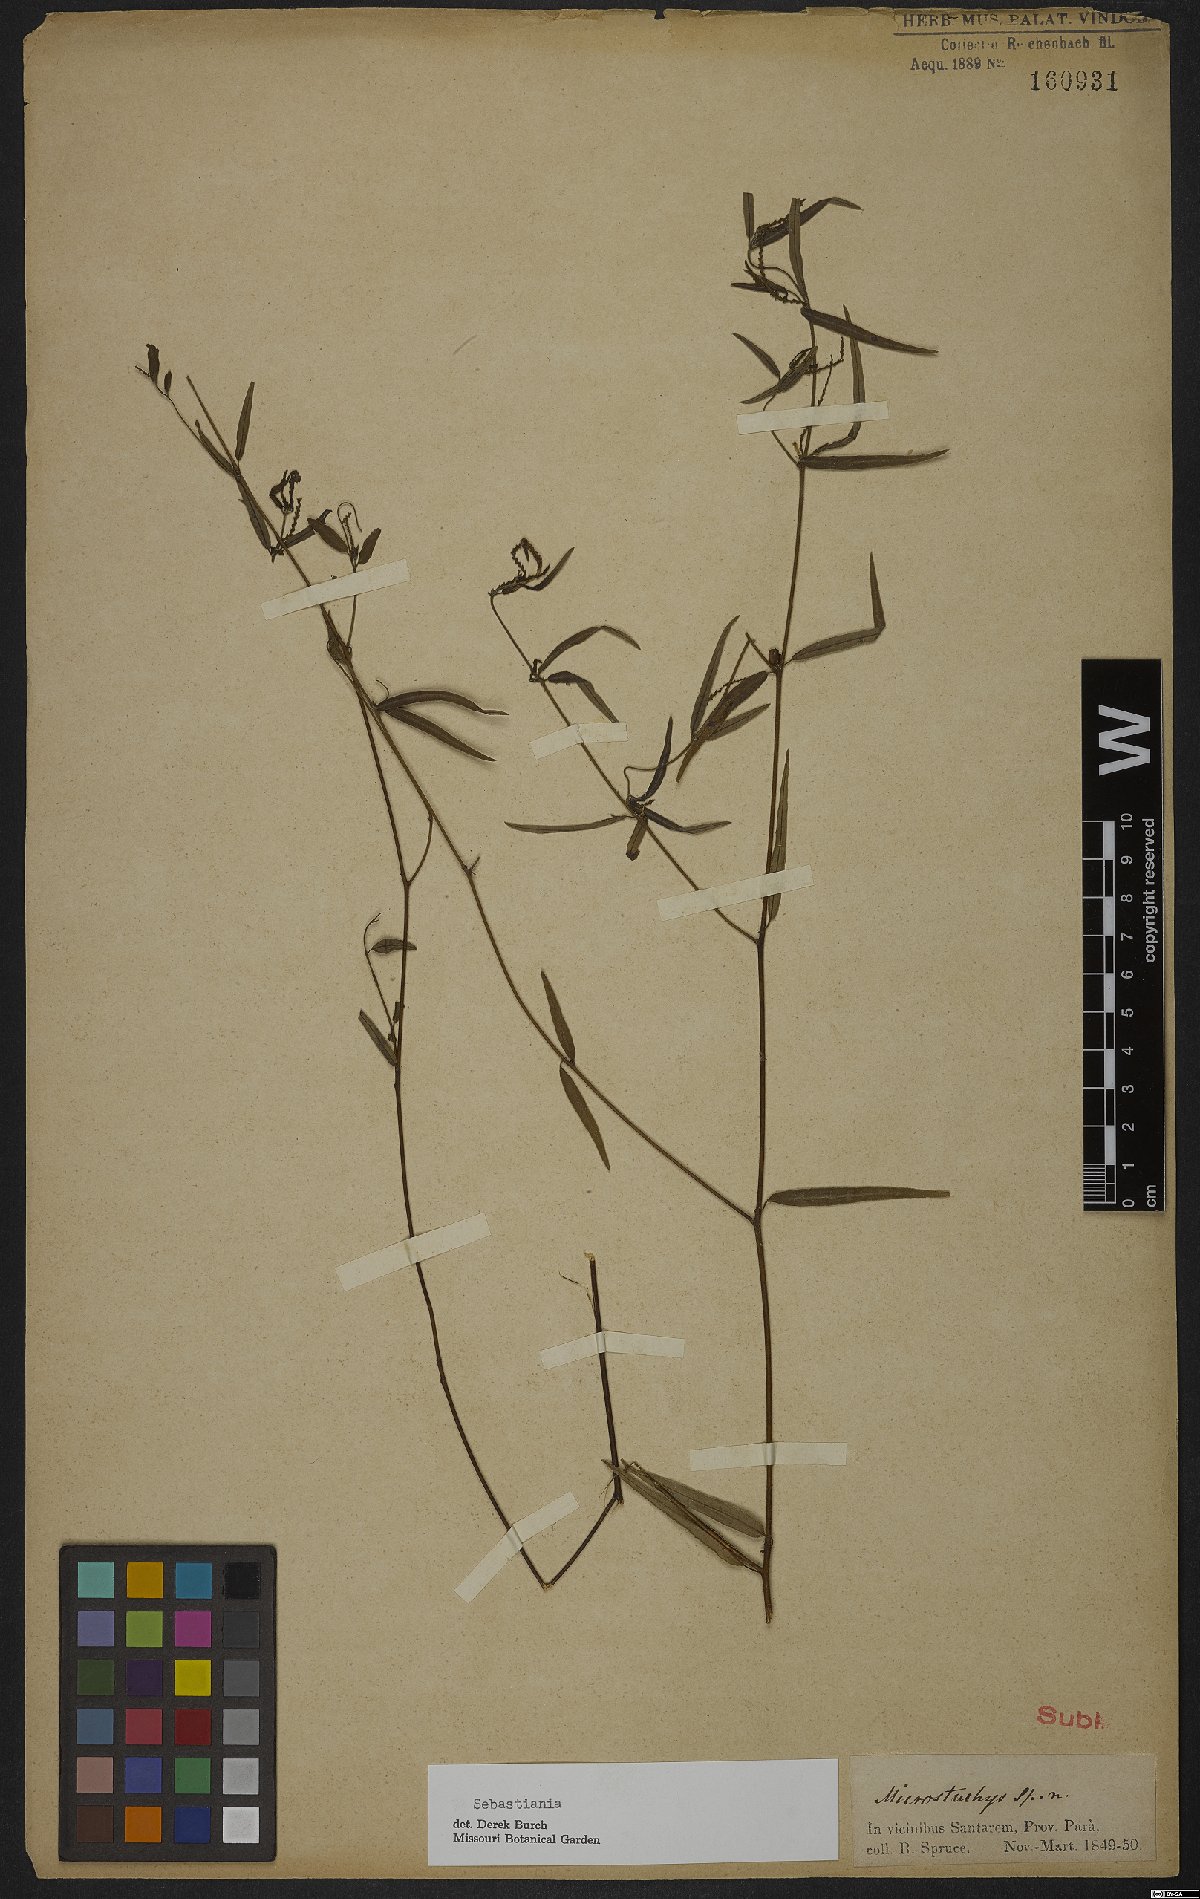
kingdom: Plantae
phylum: Tracheophyta
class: Magnoliopsida
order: Malpighiales
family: Euphorbiaceae
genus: Sebastiania
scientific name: Sebastiania
